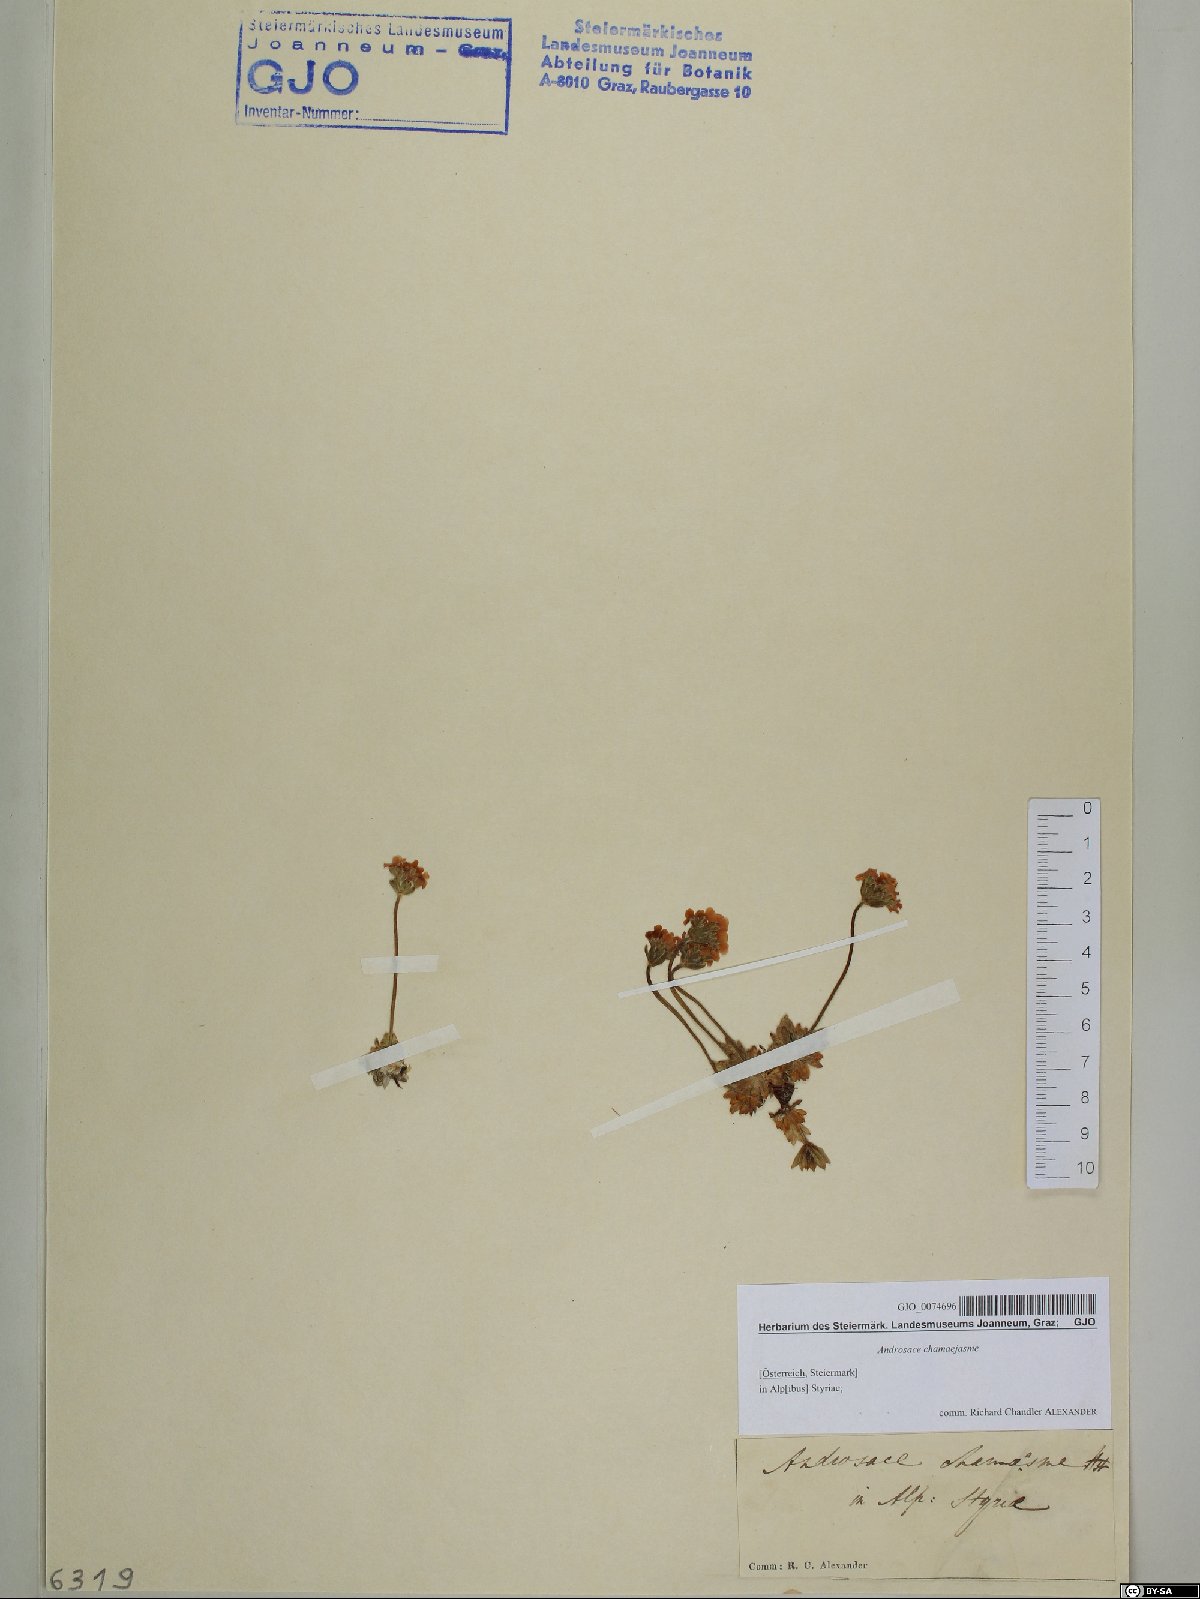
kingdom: Plantae
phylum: Tracheophyta
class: Magnoliopsida
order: Ericales
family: Primulaceae
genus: Androsace
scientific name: Androsace chamaejasme
